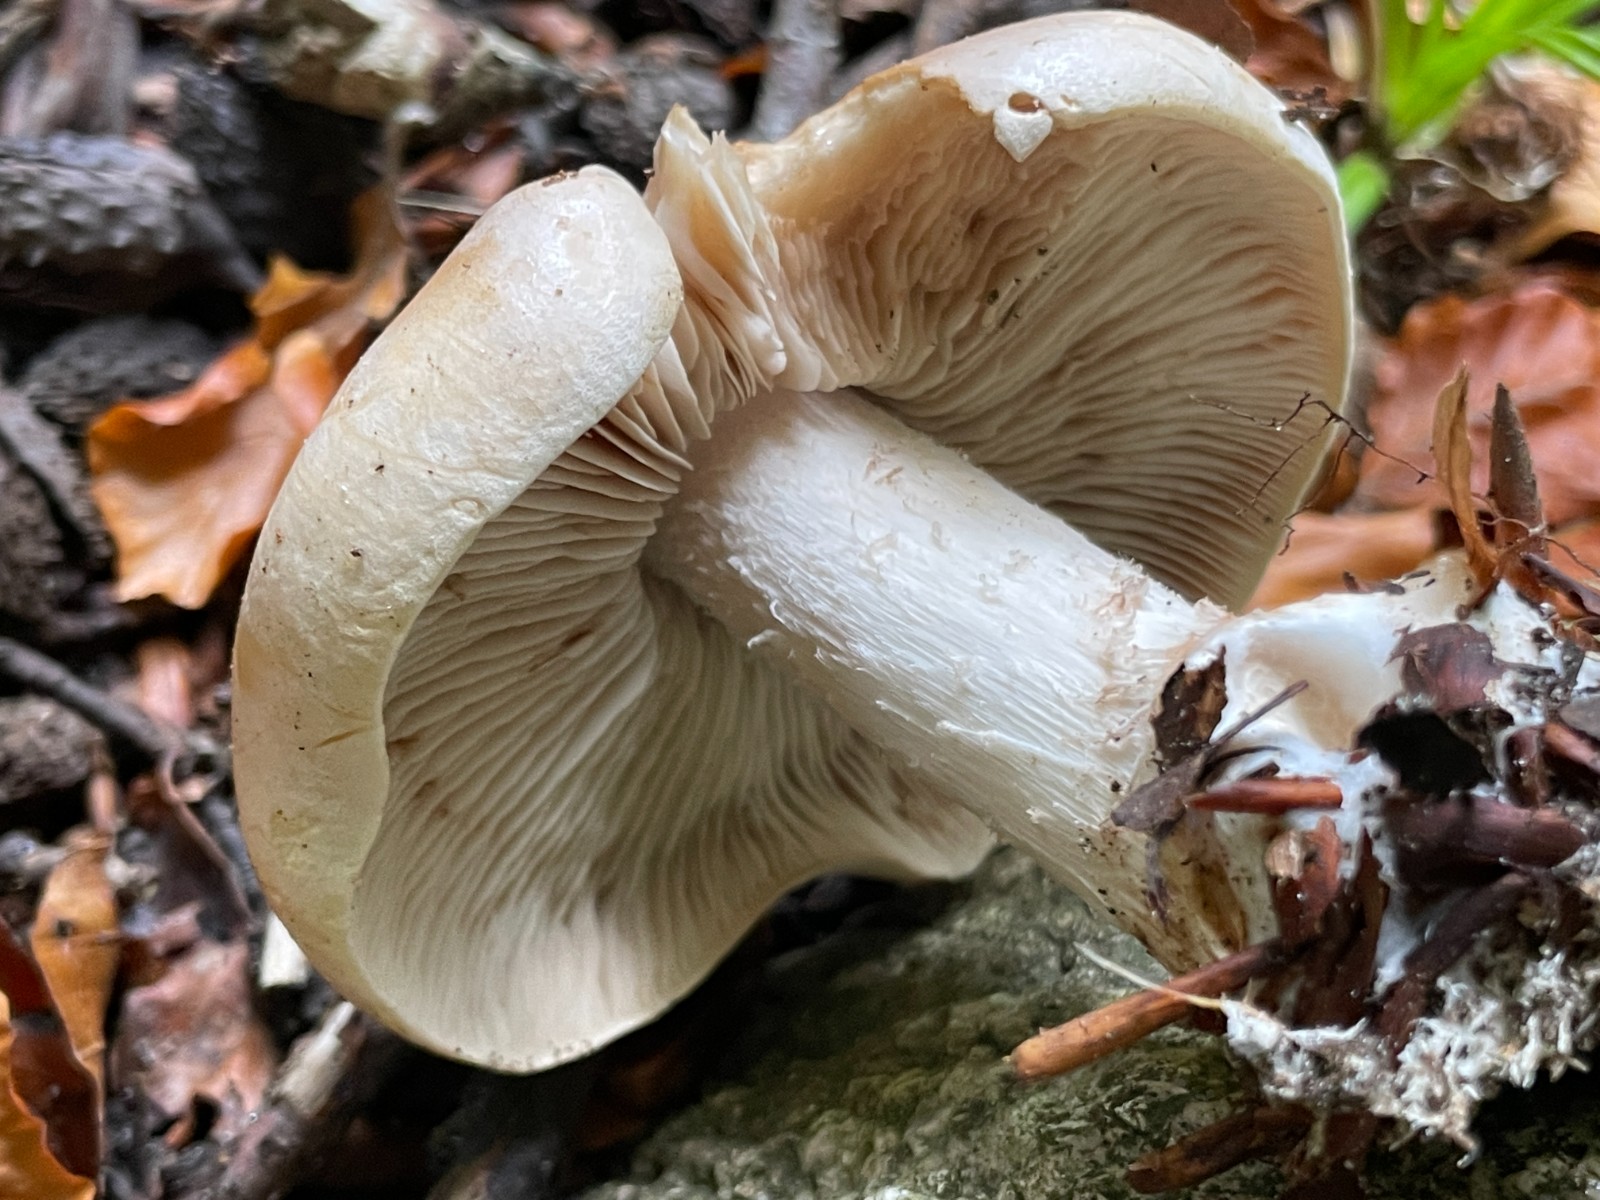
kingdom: Fungi
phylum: Basidiomycota
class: Agaricomycetes
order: Agaricales
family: Hymenogastraceae
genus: Hebeloma
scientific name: Hebeloma sinapizans
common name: ræddike-tåreblad
